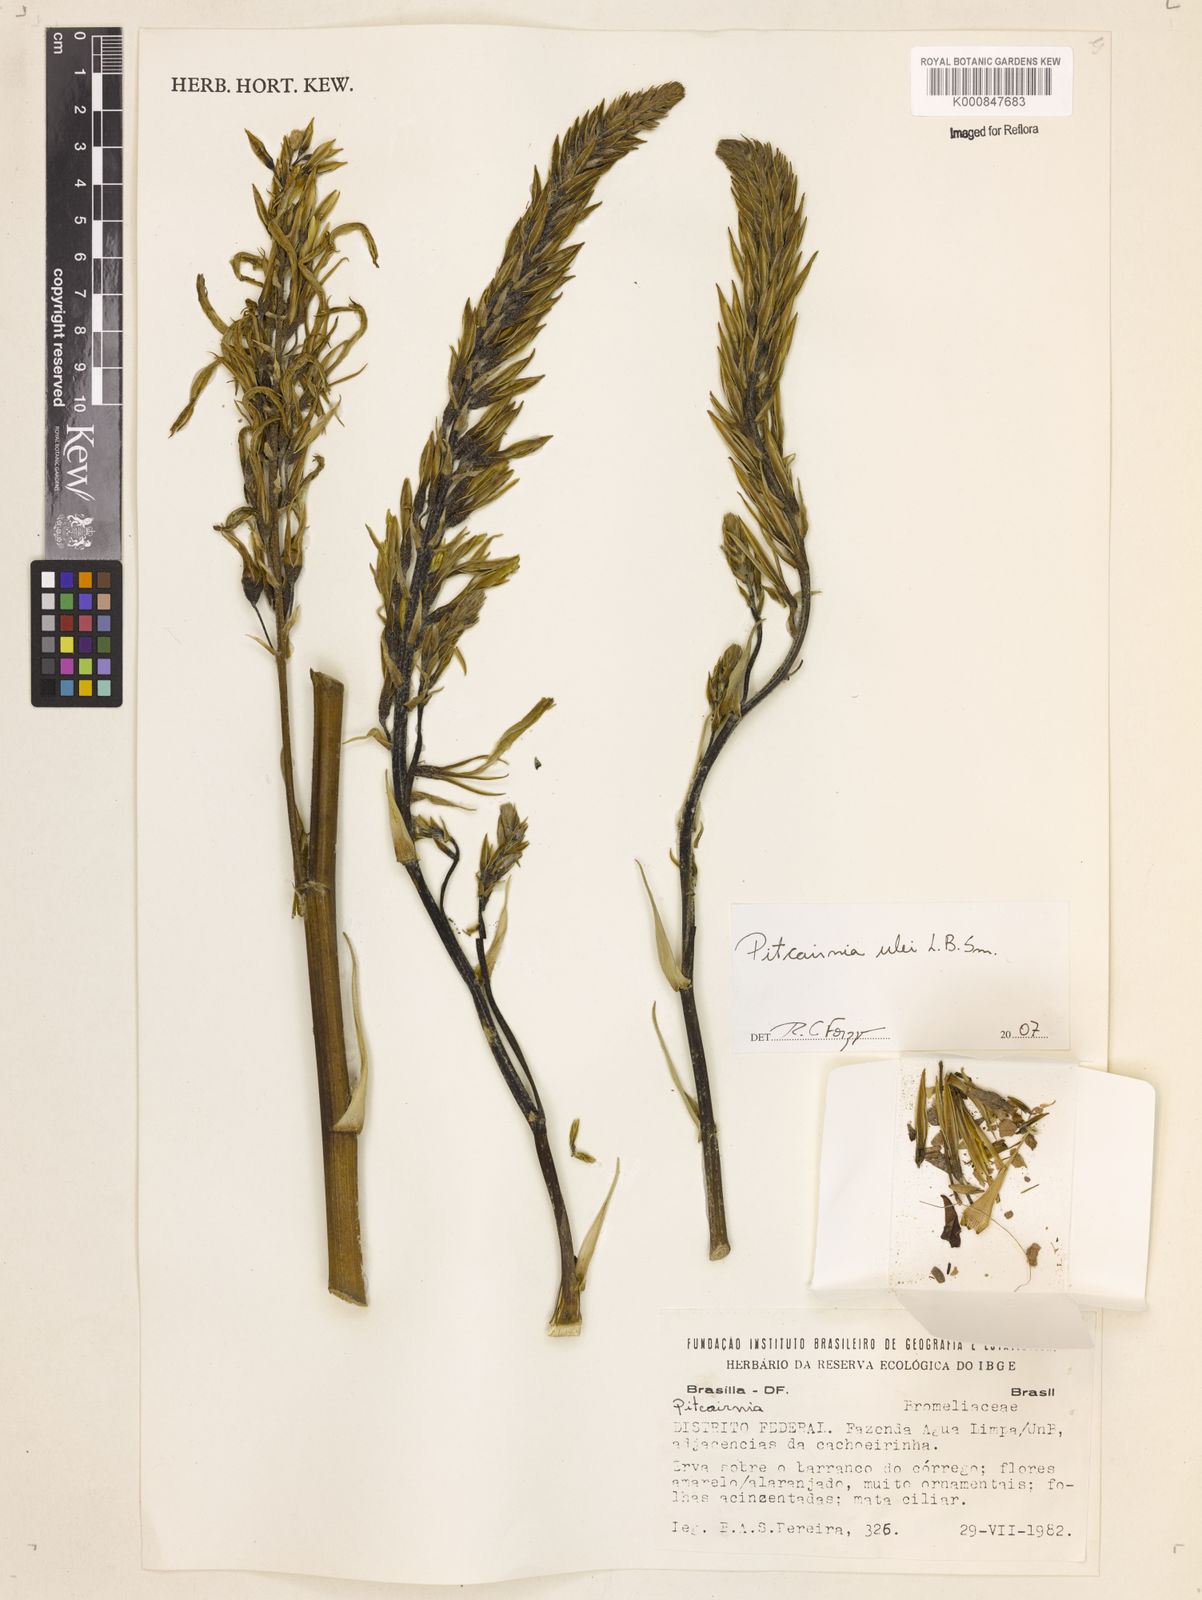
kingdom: Plantae
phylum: Tracheophyta
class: Liliopsida
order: Poales
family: Bromeliaceae
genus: Pitcairnia
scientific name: Pitcairnia ulei
